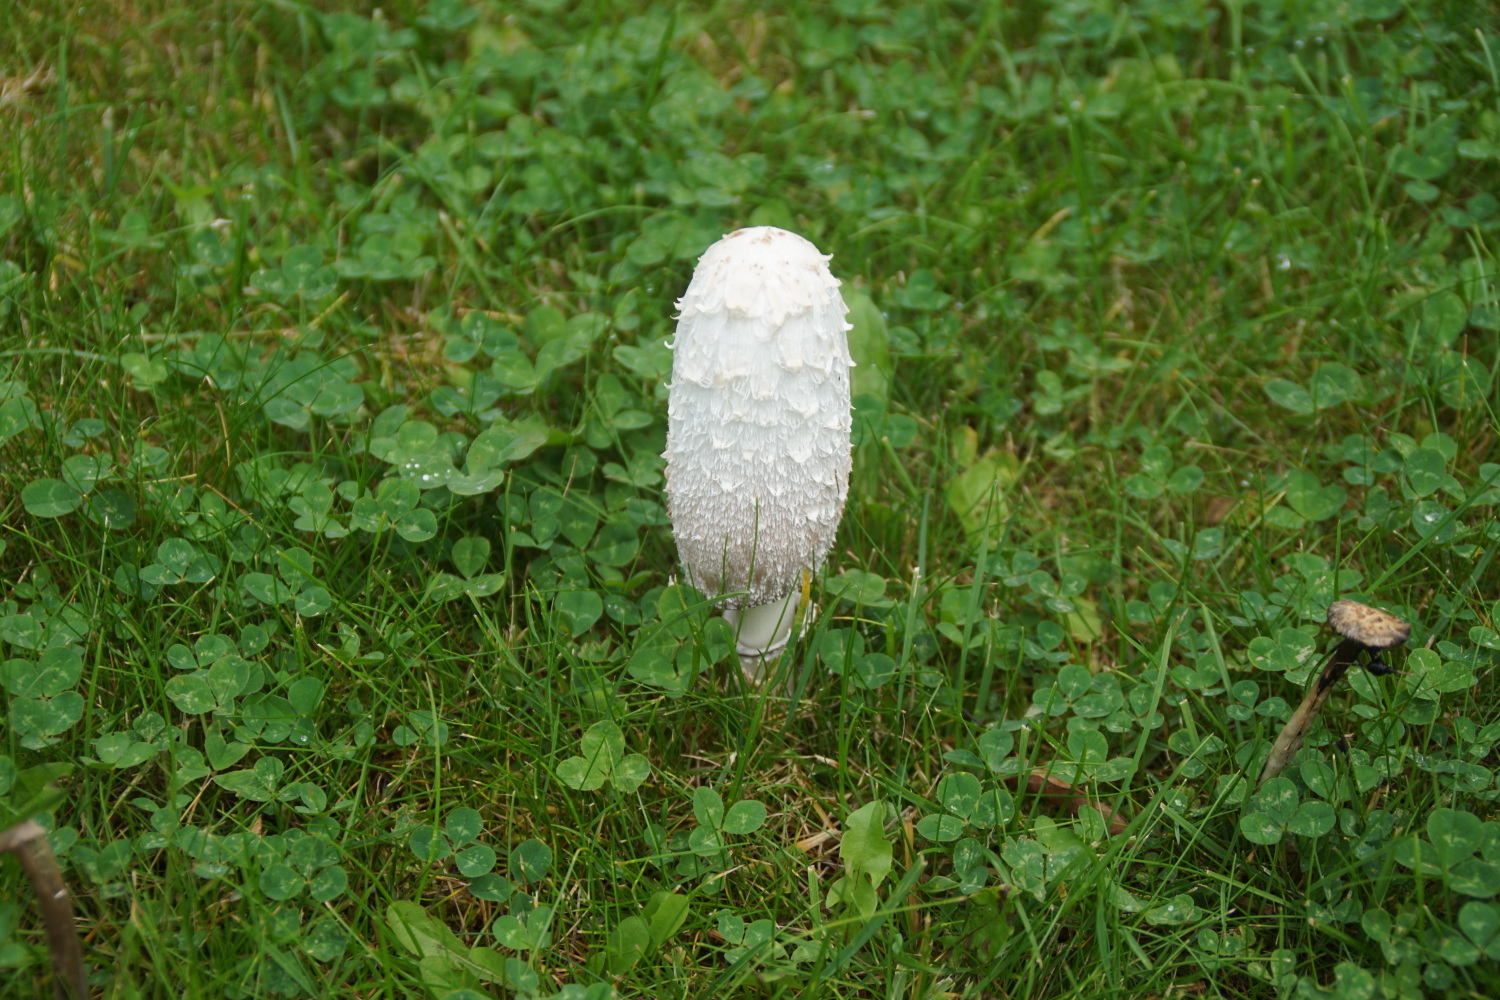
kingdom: Fungi
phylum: Basidiomycota
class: Agaricomycetes
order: Agaricales
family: Agaricaceae
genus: Coprinus
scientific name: Coprinus comatus
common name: stor parykhat
